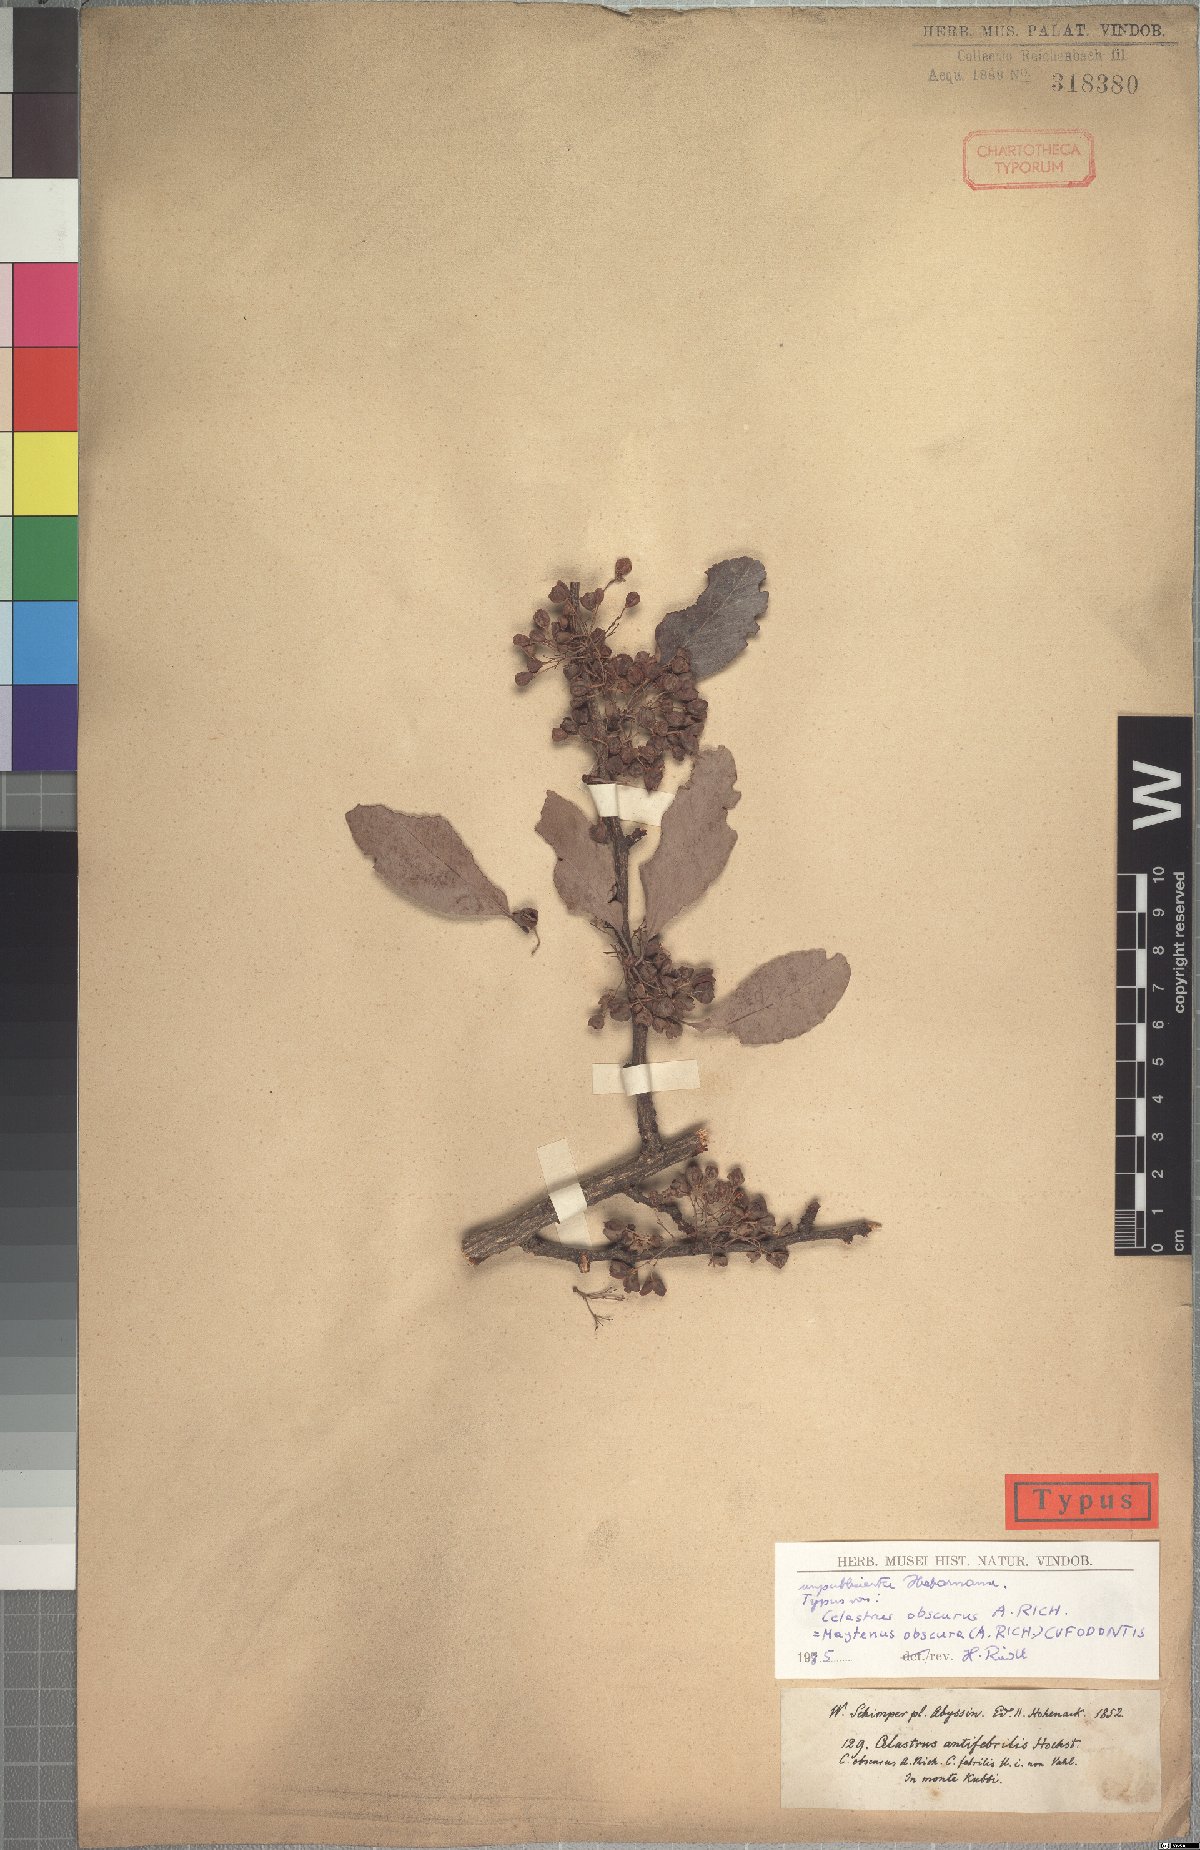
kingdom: Plantae
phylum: Tracheophyta
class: Magnoliopsida
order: Celastrales
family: Celastraceae
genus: Gymnosporia
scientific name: Gymnosporia obscura
